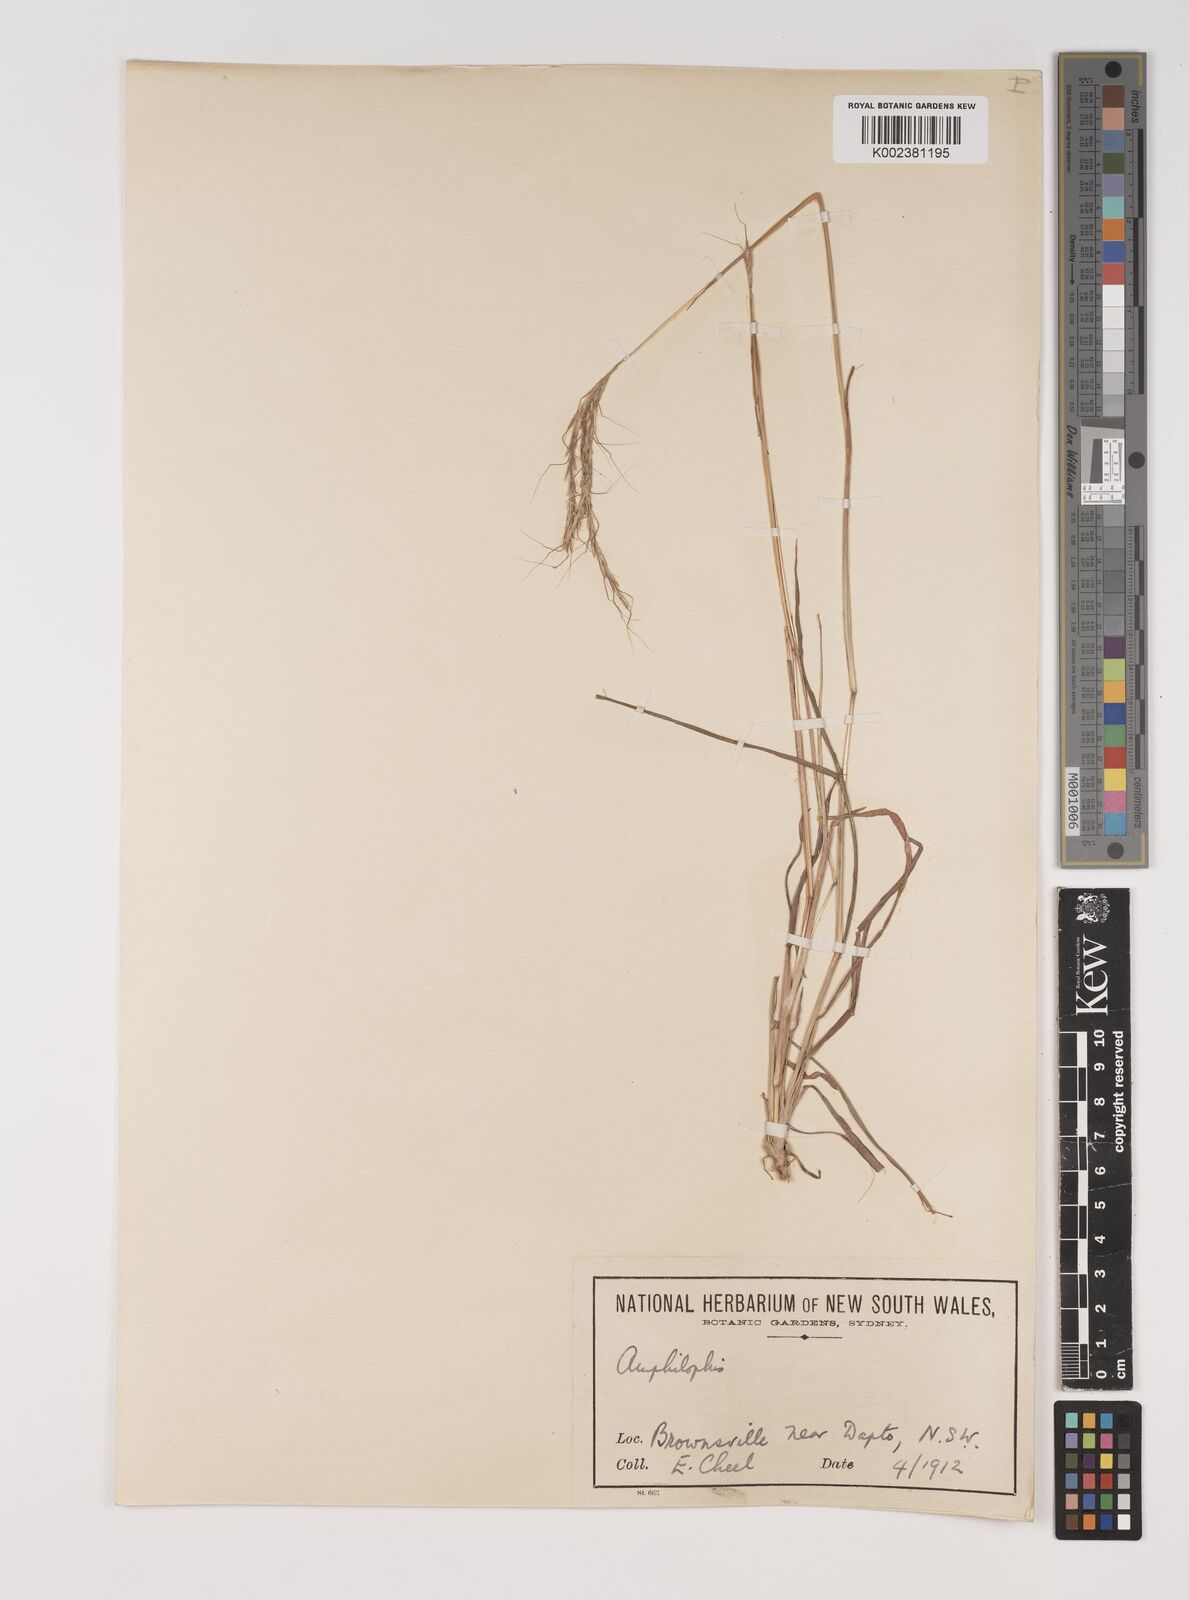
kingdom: Plantae
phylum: Tracheophyta
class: Liliopsida
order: Poales
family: Poaceae
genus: Bothriochloa
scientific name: Bothriochloa macra
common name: Pitted beard grass
